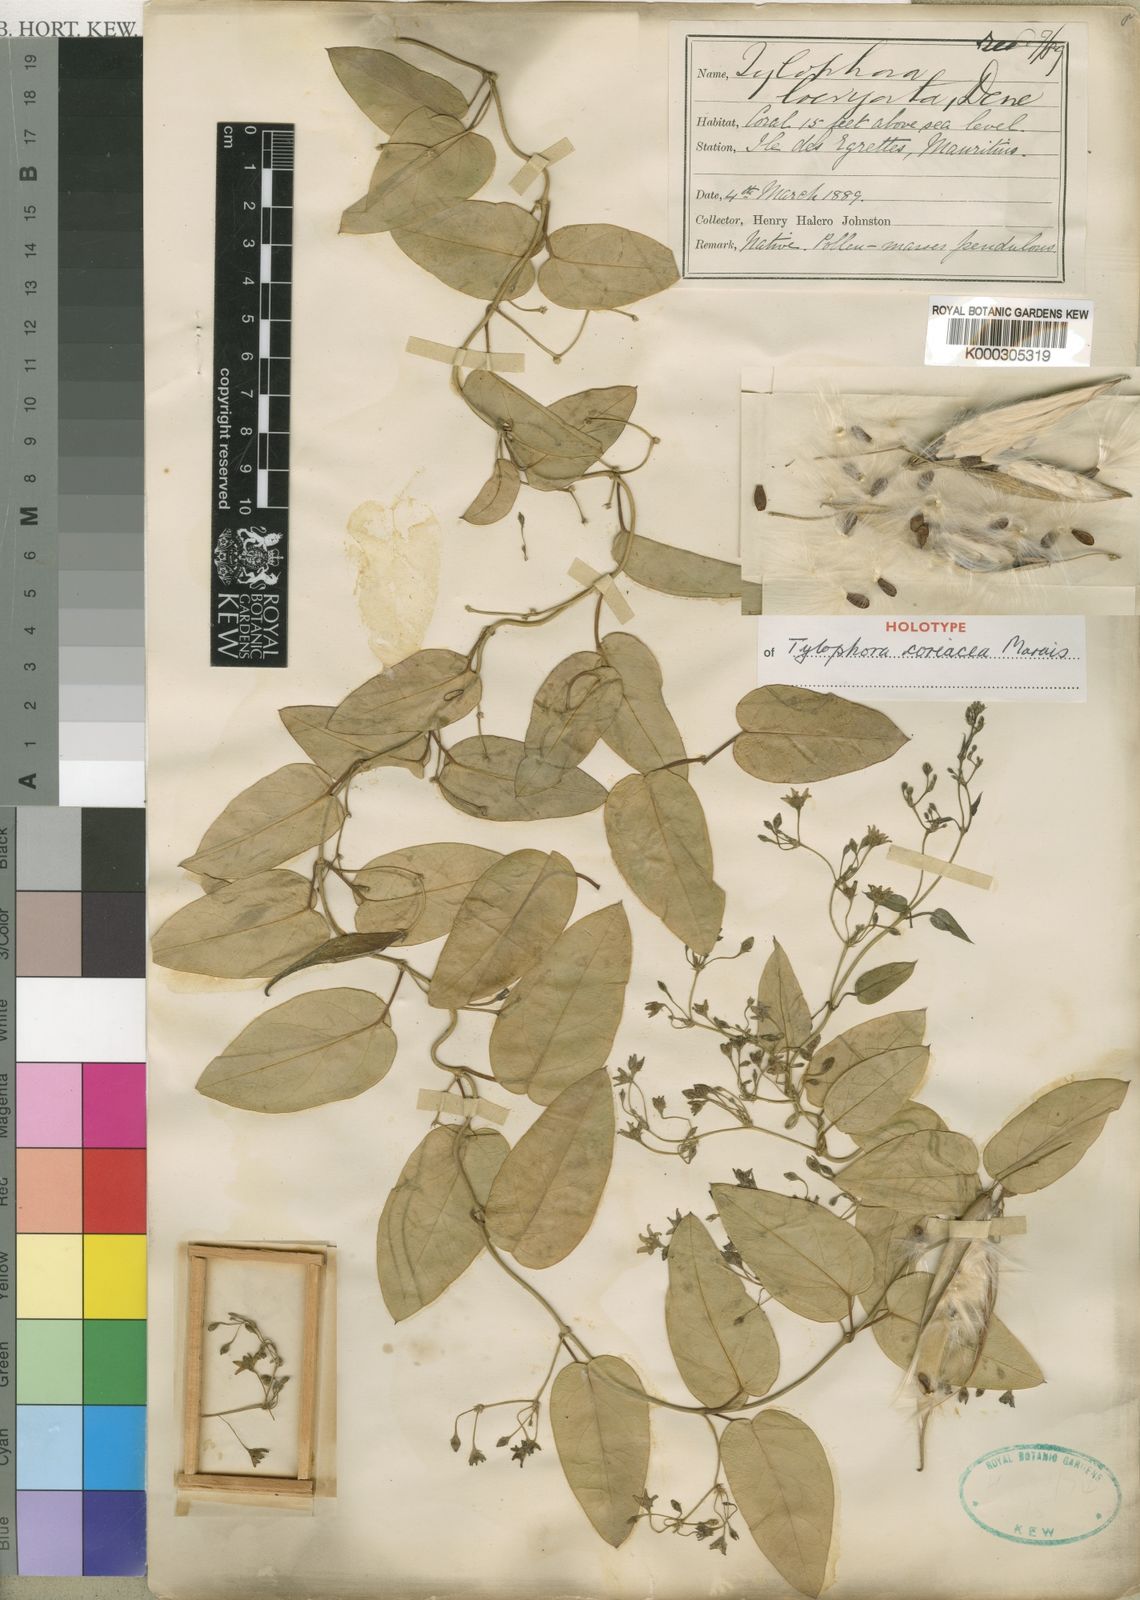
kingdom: Plantae
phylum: Tracheophyta
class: Magnoliopsida
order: Gentianales
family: Apocynaceae
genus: Vincetoxicum
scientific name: Vincetoxicum confusum
